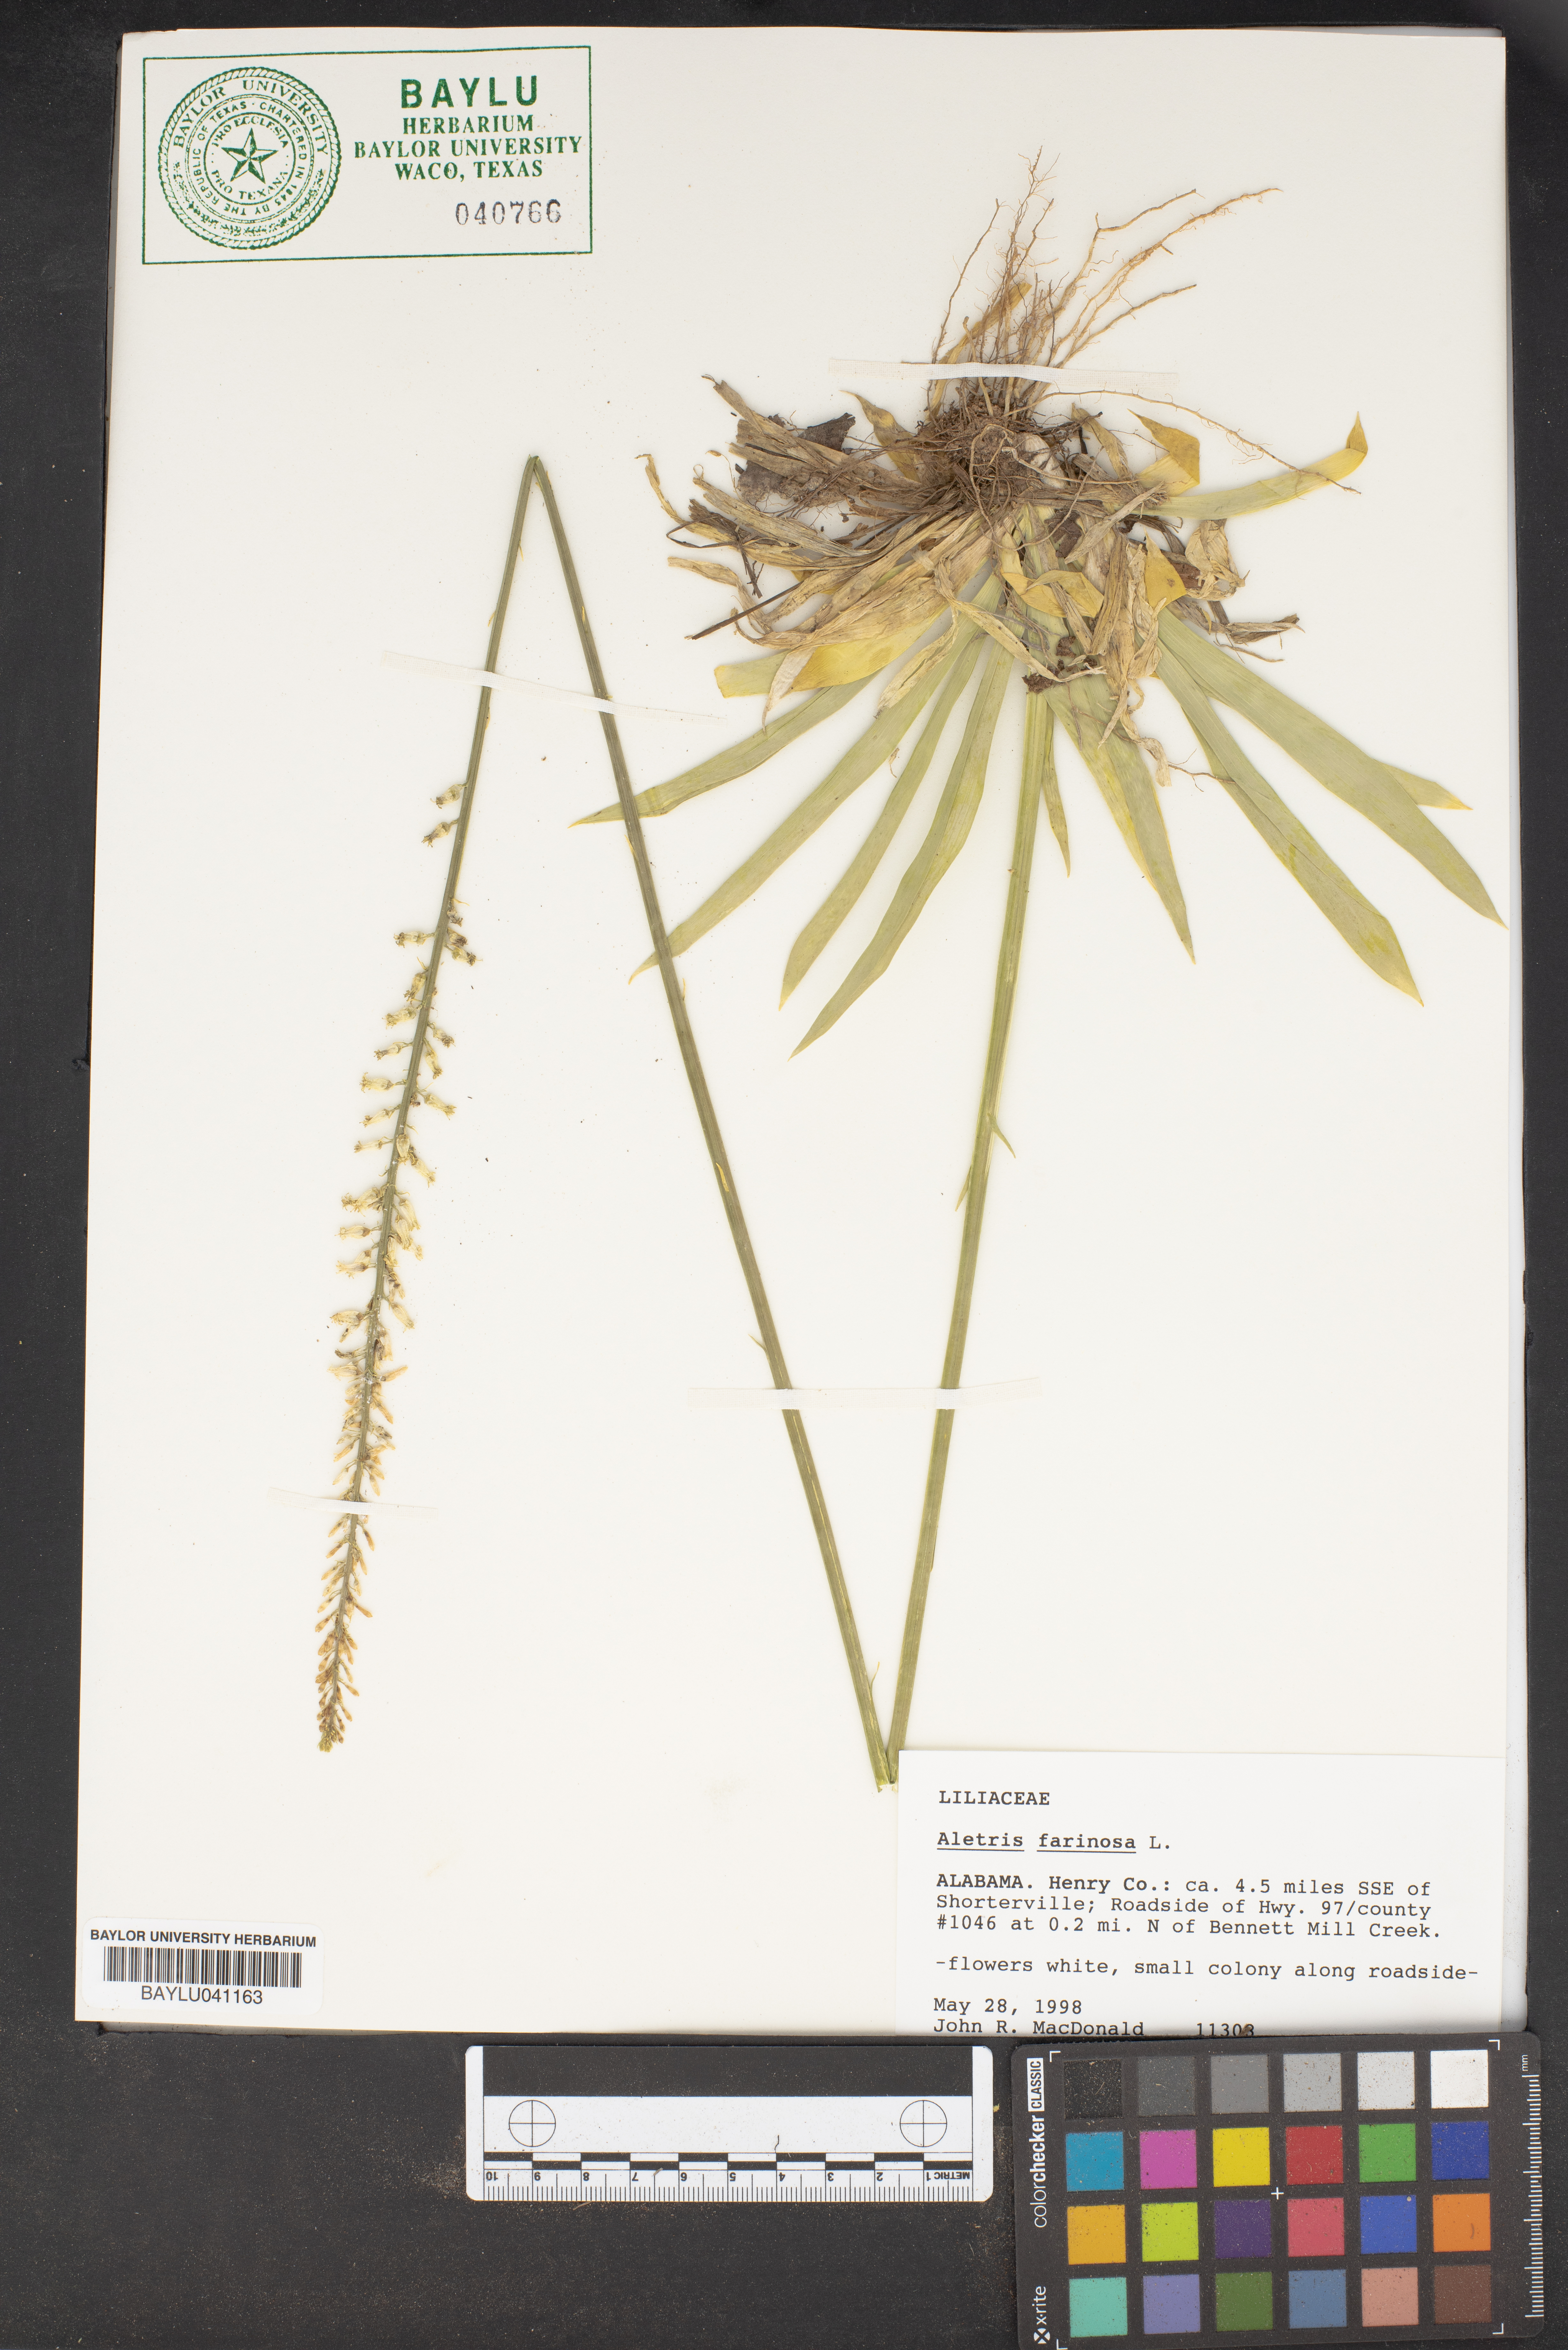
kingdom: Plantae
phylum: Tracheophyta
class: Liliopsida
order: Dioscoreales
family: Nartheciaceae
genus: Aletris
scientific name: Aletris farinosa
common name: Colicroot
